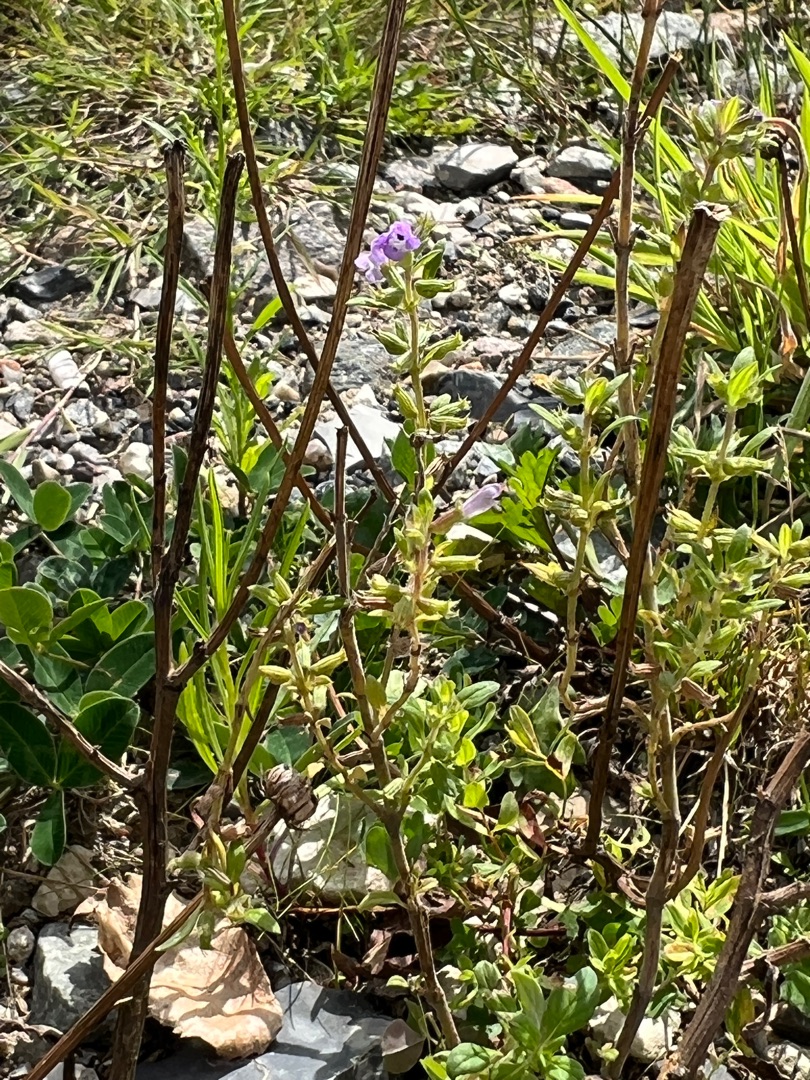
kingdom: Plantae
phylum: Tracheophyta
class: Magnoliopsida
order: Lamiales
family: Lamiaceae
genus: Clinopodium
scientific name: Clinopodium acinos
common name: Voldtimian
